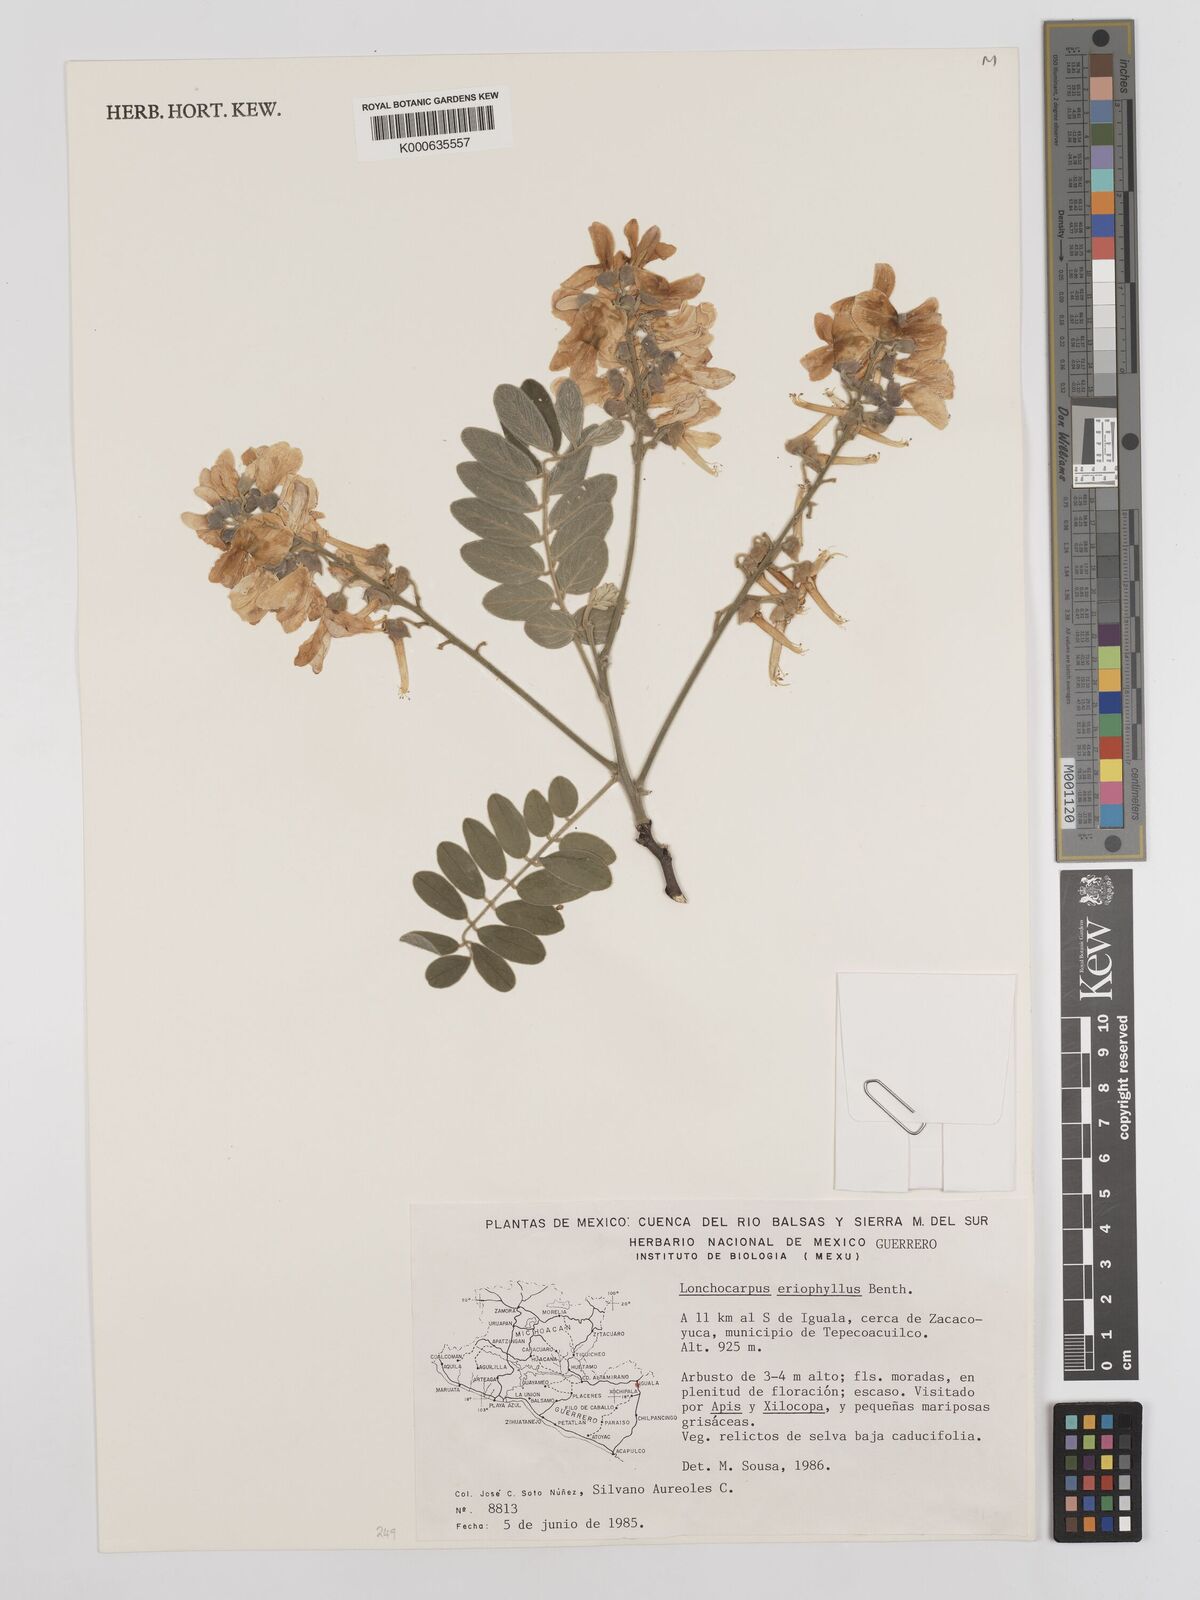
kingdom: Plantae
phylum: Tracheophyta
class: Magnoliopsida
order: Fabales
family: Fabaceae
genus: Lonchocarpus
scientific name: Lonchocarpus eriophyllus
